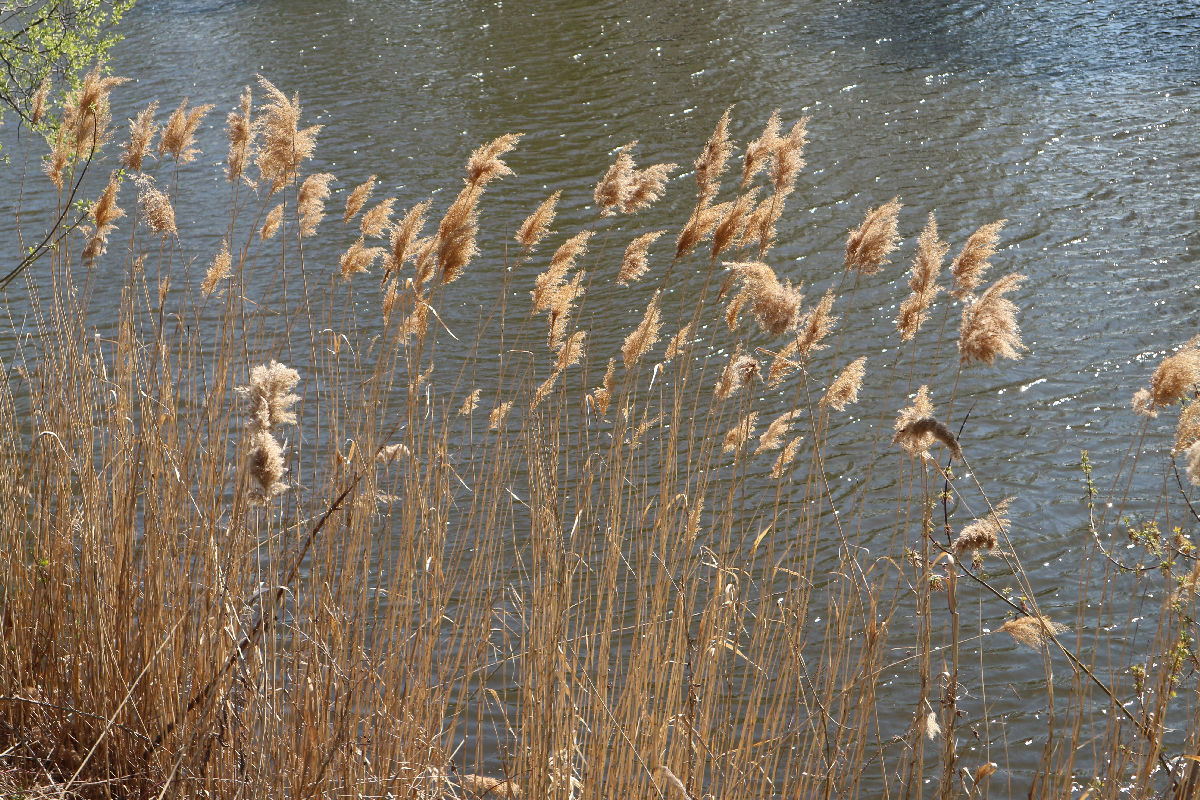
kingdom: Plantae
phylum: Tracheophyta
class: Liliopsida
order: Poales
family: Poaceae
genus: Phragmites
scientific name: Phragmites australis
